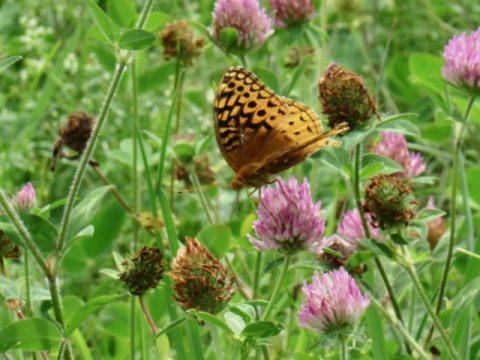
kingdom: Animalia
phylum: Arthropoda
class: Insecta
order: Lepidoptera
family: Nymphalidae
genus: Speyeria
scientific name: Speyeria cybele
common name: Great Spangled Fritillary
